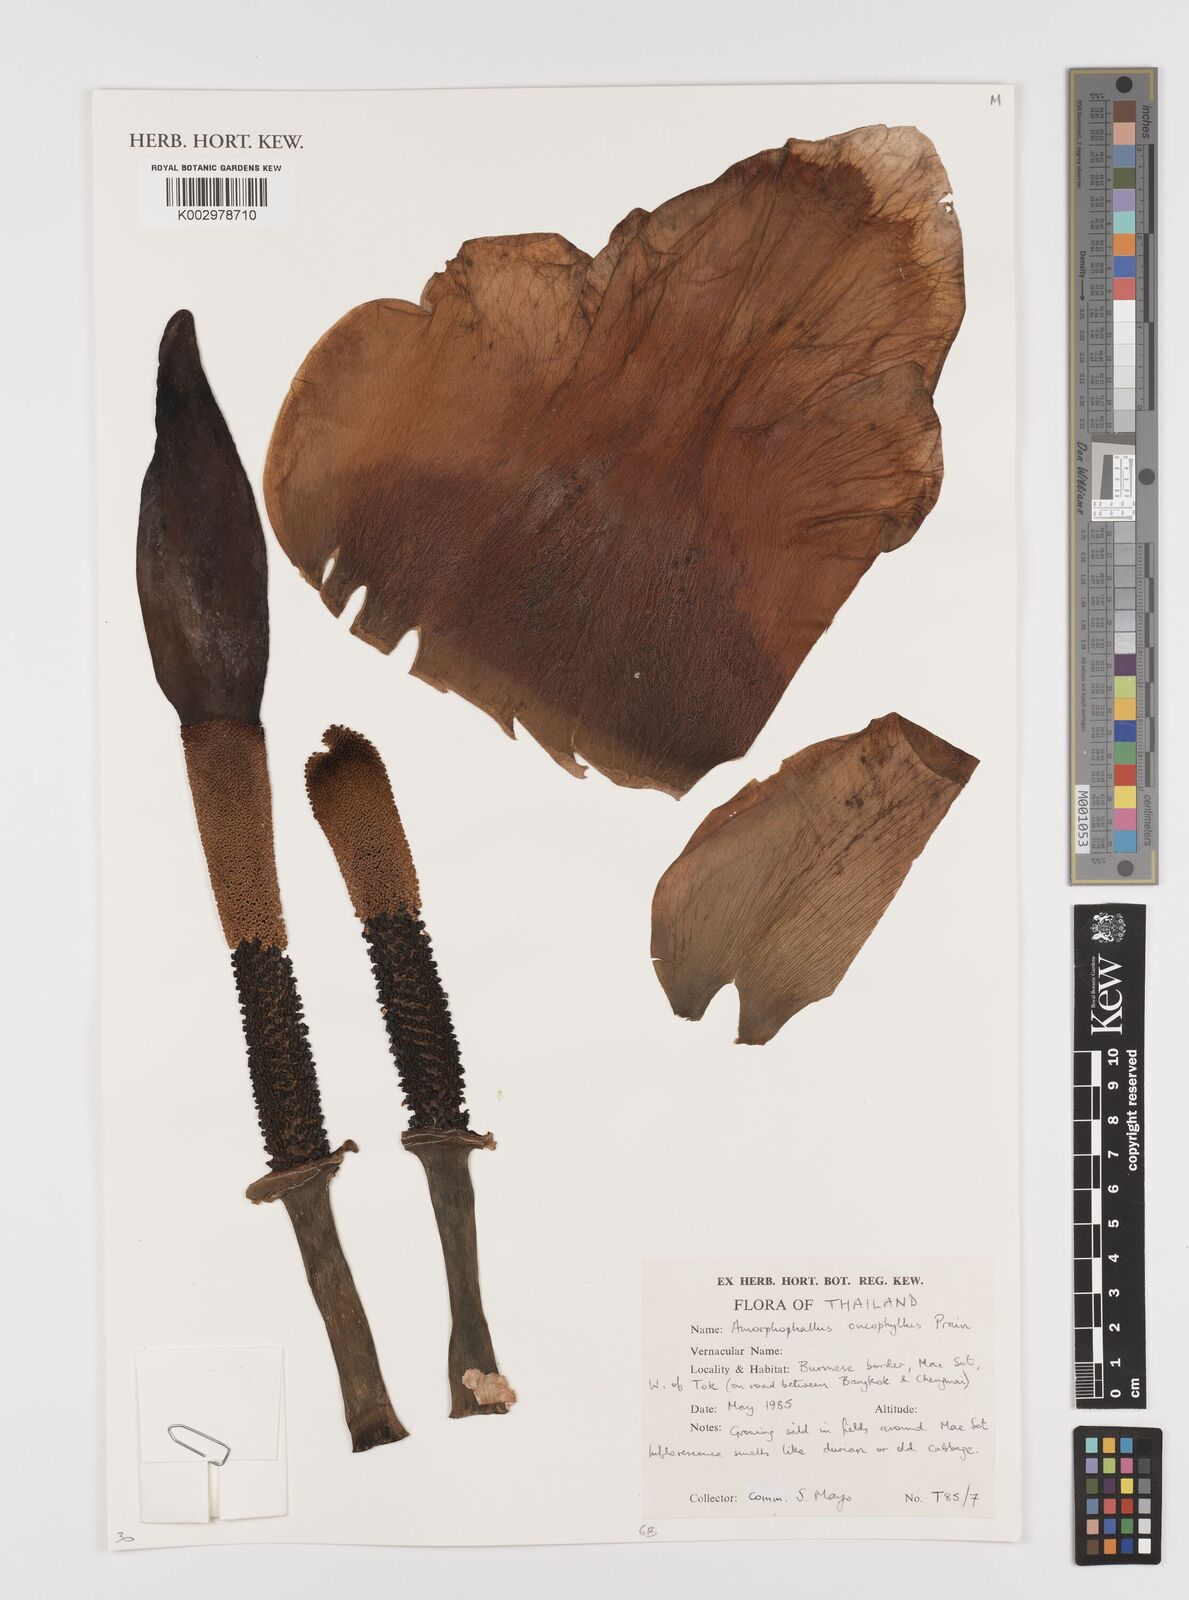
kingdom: Plantae
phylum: Tracheophyta
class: Liliopsida
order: Alismatales
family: Araceae
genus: Amorphophallus
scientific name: Amorphophallus muelleri
